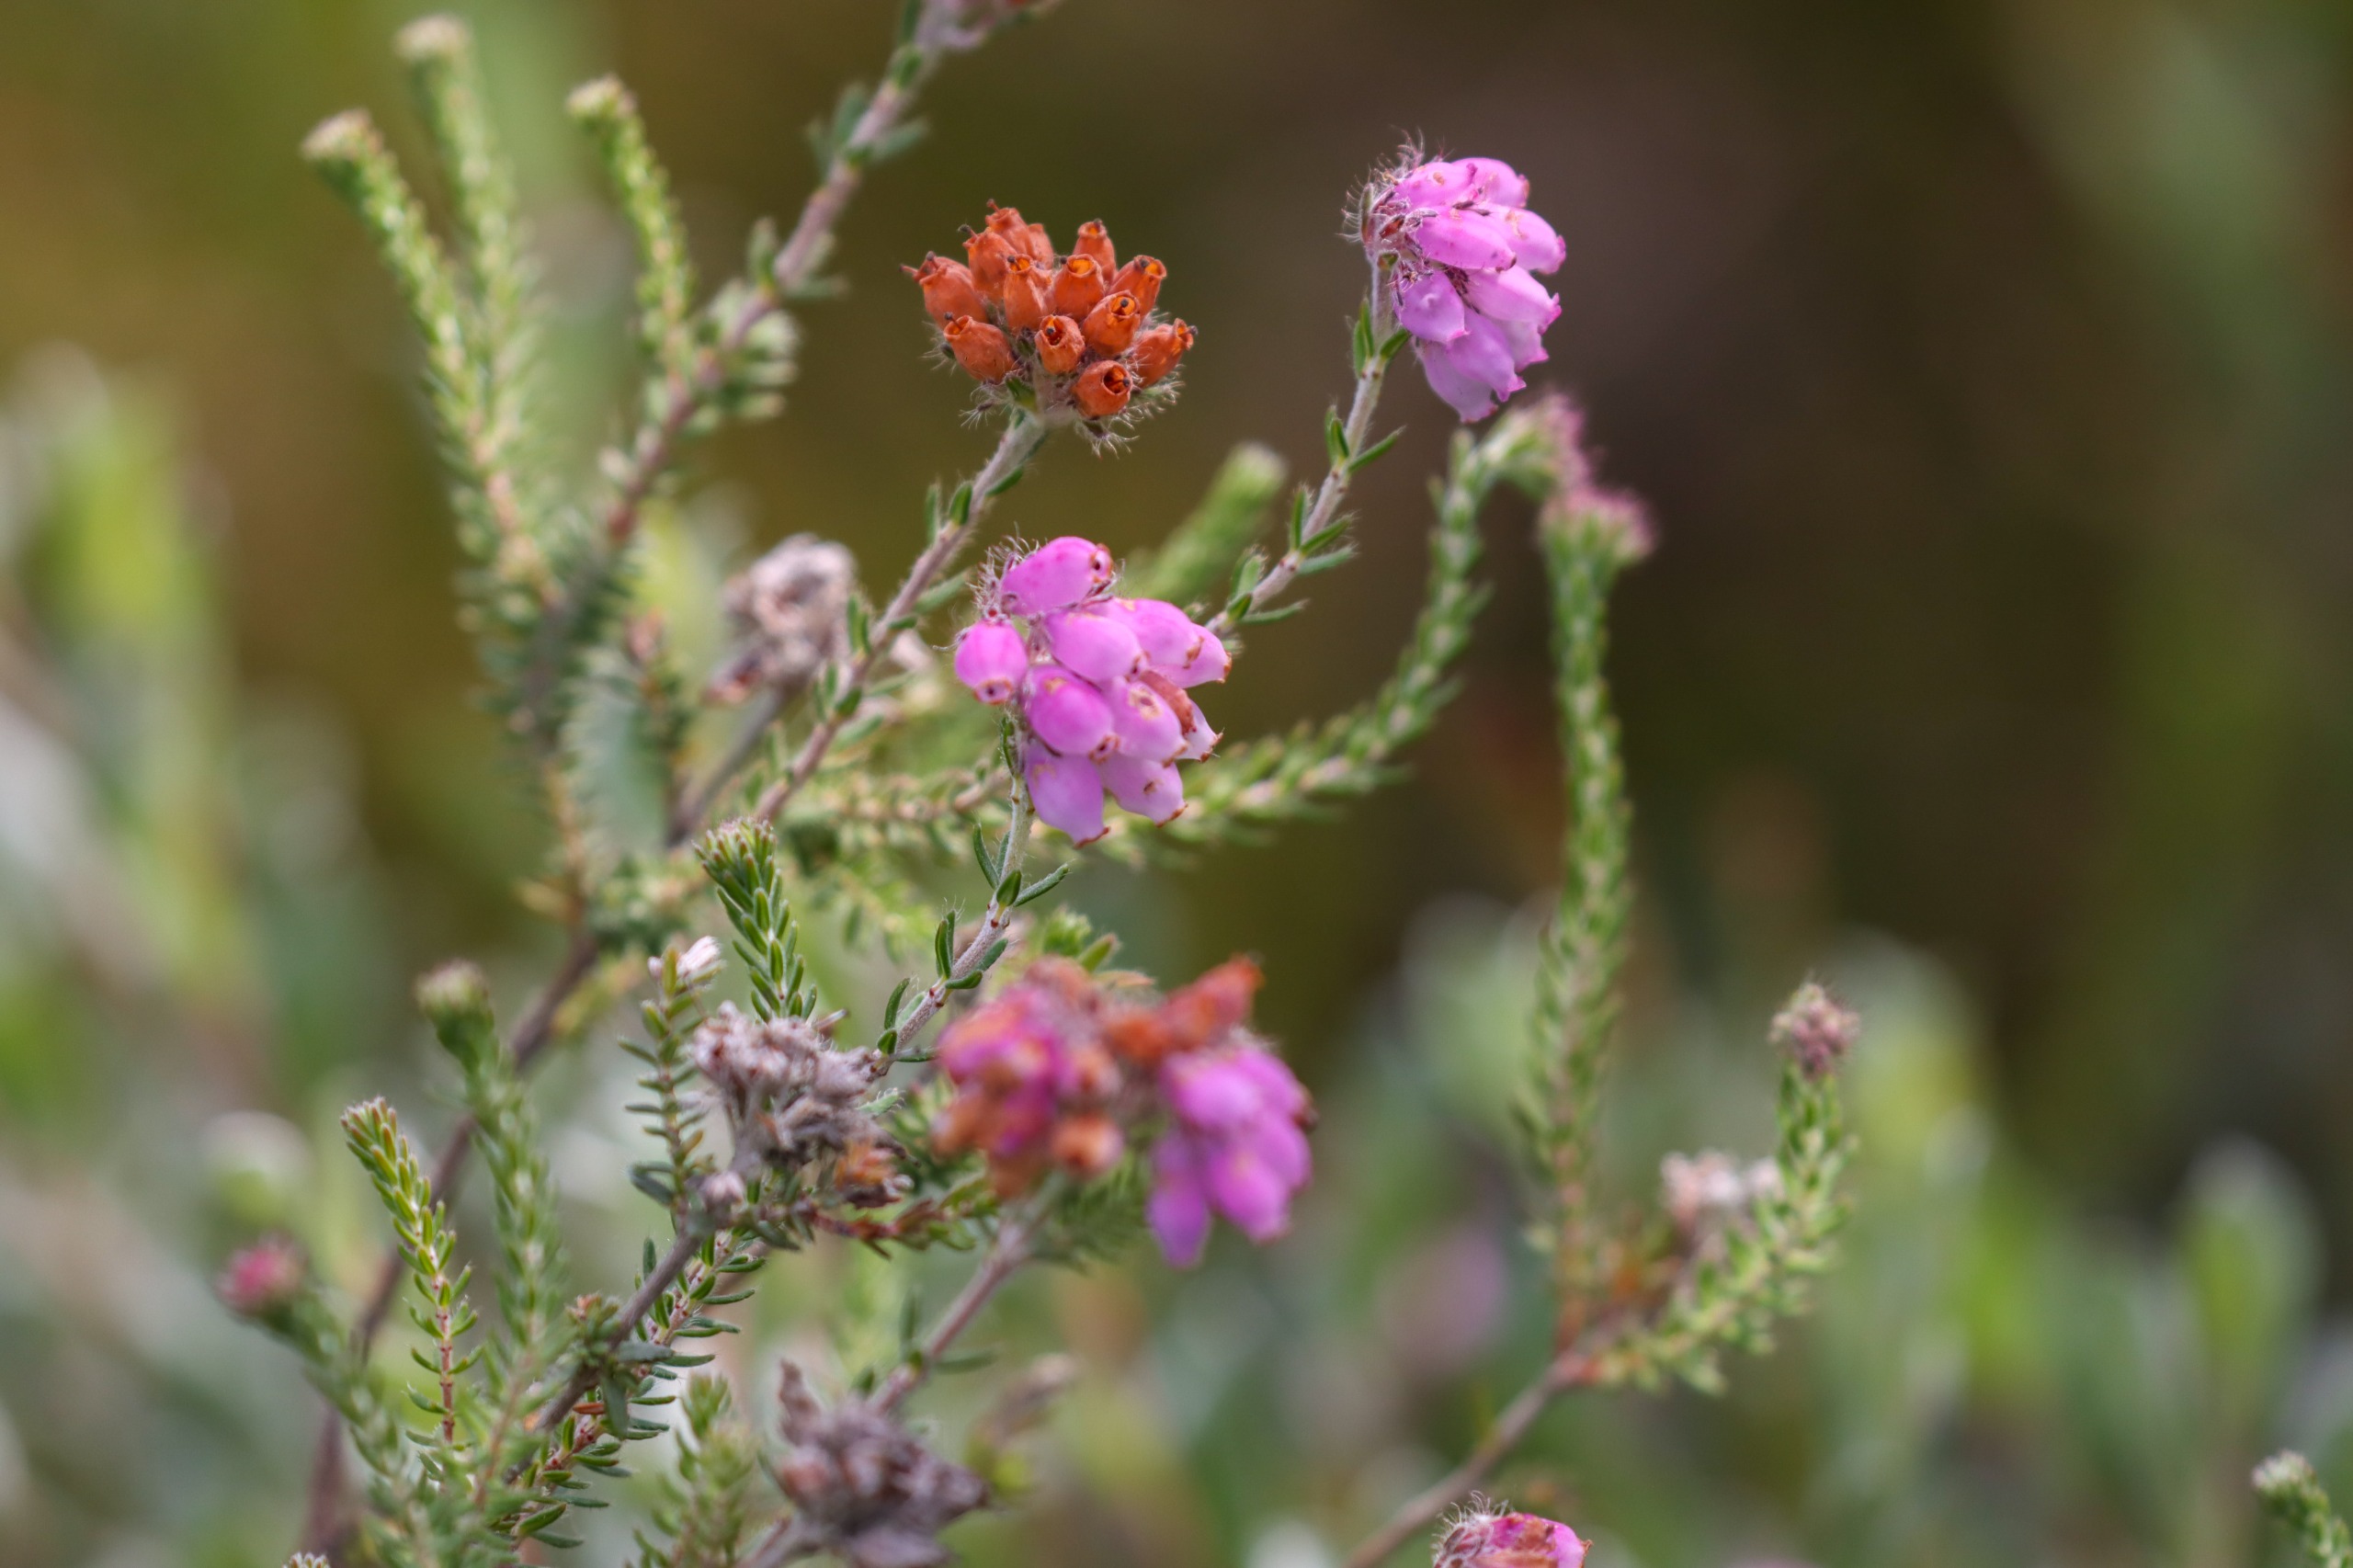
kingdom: Plantae
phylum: Tracheophyta
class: Magnoliopsida
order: Ericales
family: Ericaceae
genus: Erica
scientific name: Erica tetralix
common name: Klokkelyng
